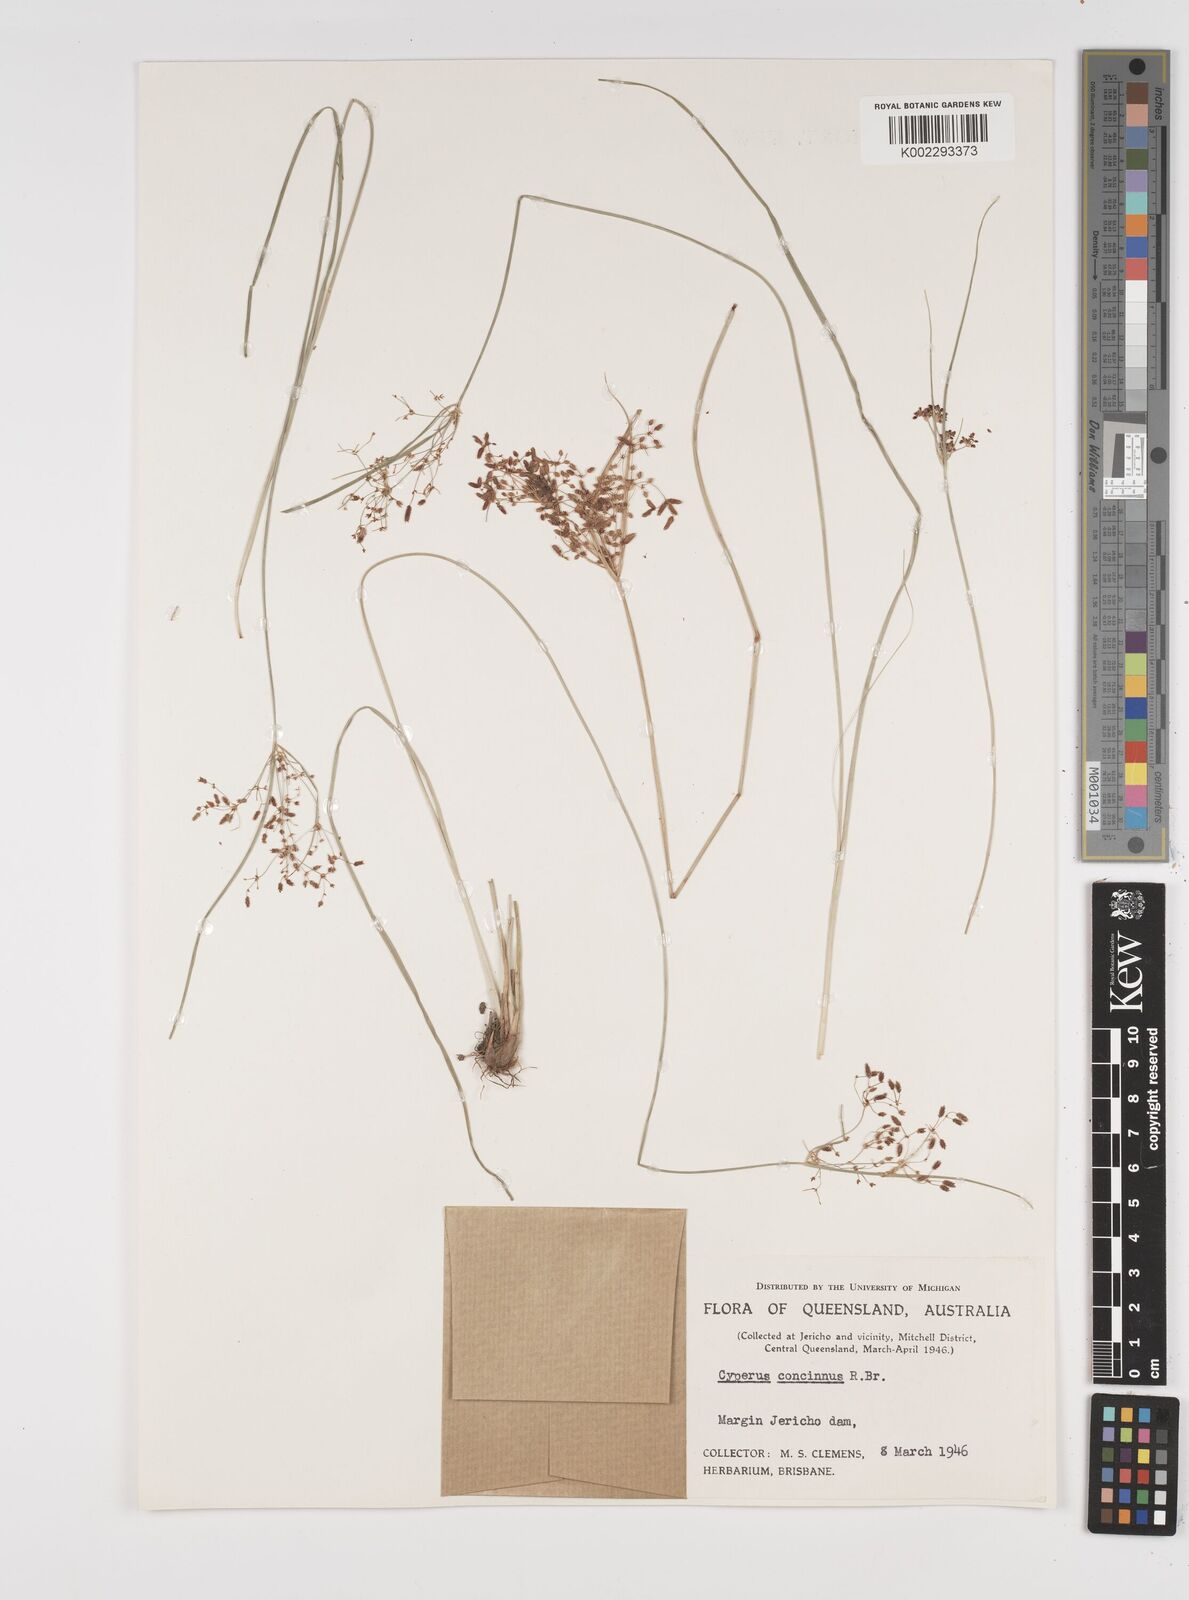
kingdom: Plantae
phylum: Tracheophyta
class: Liliopsida
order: Poales
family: Cyperaceae
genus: Cyperus
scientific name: Cyperus concinnus
